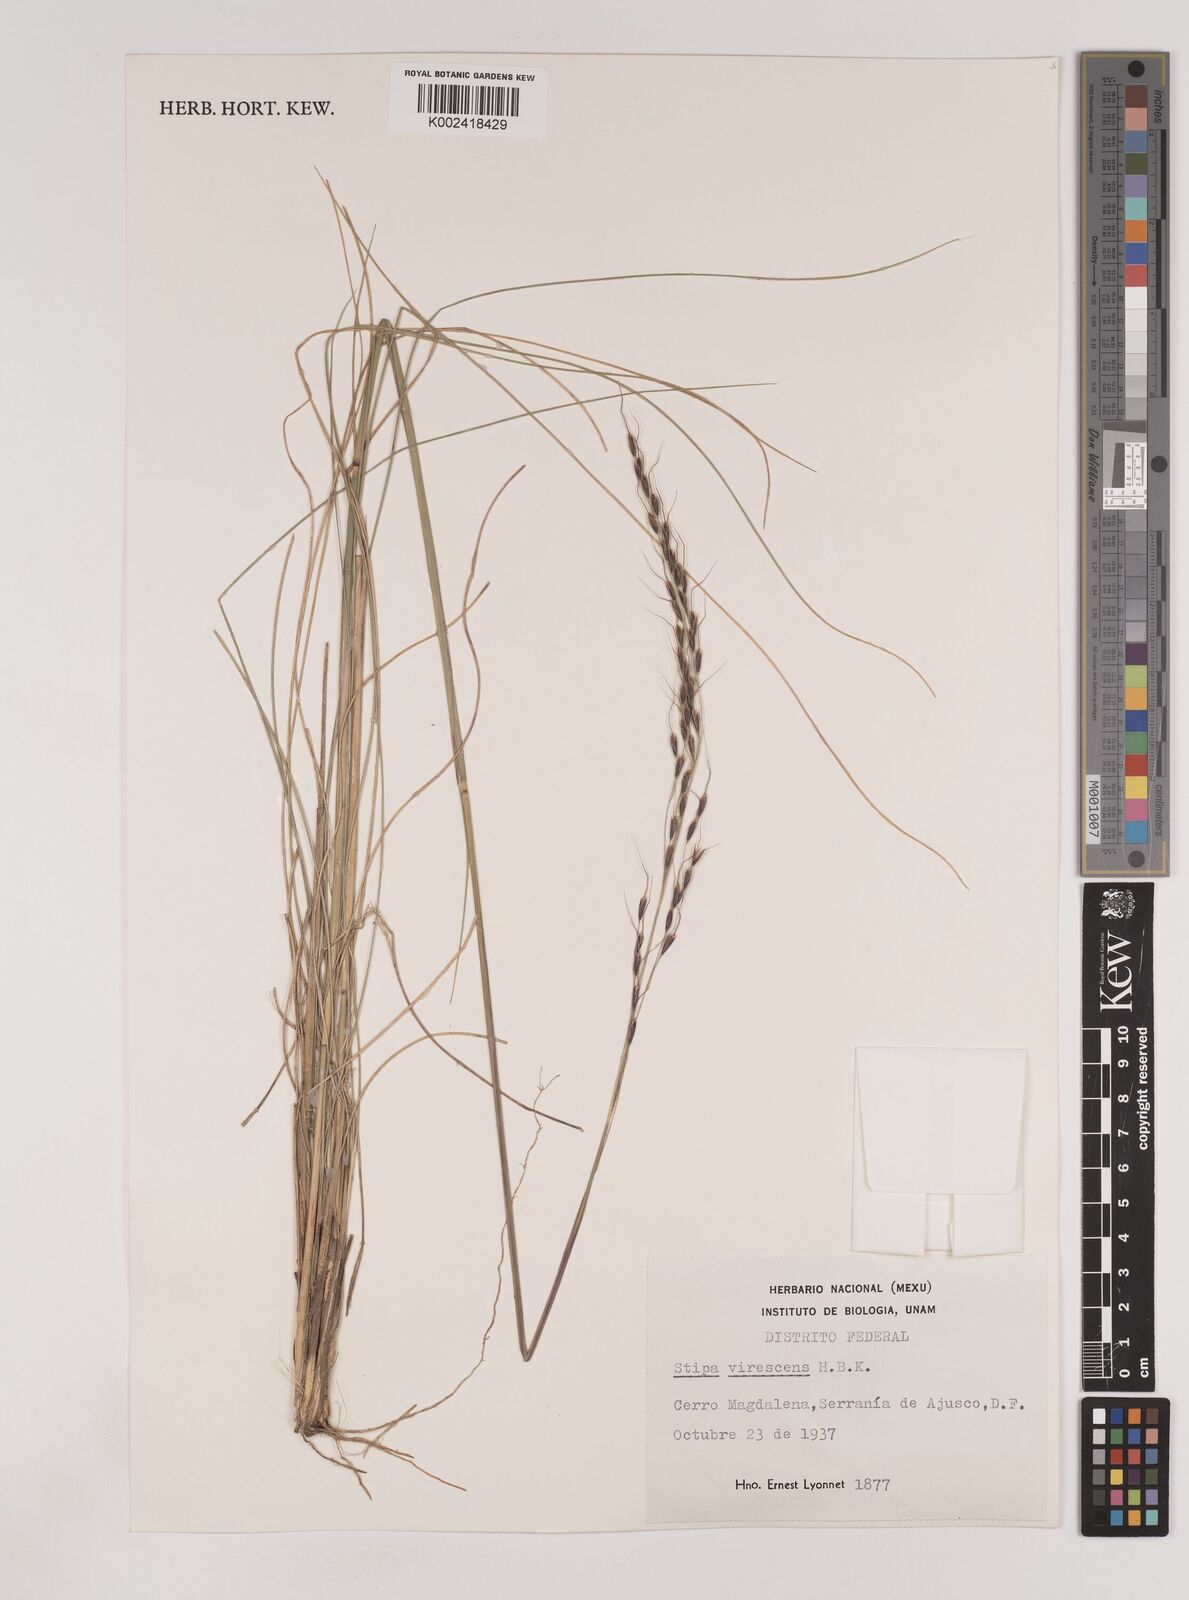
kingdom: Plantae
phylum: Tracheophyta
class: Liliopsida
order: Poales
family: Poaceae
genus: Piptochaetium
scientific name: Piptochaetium virescens
